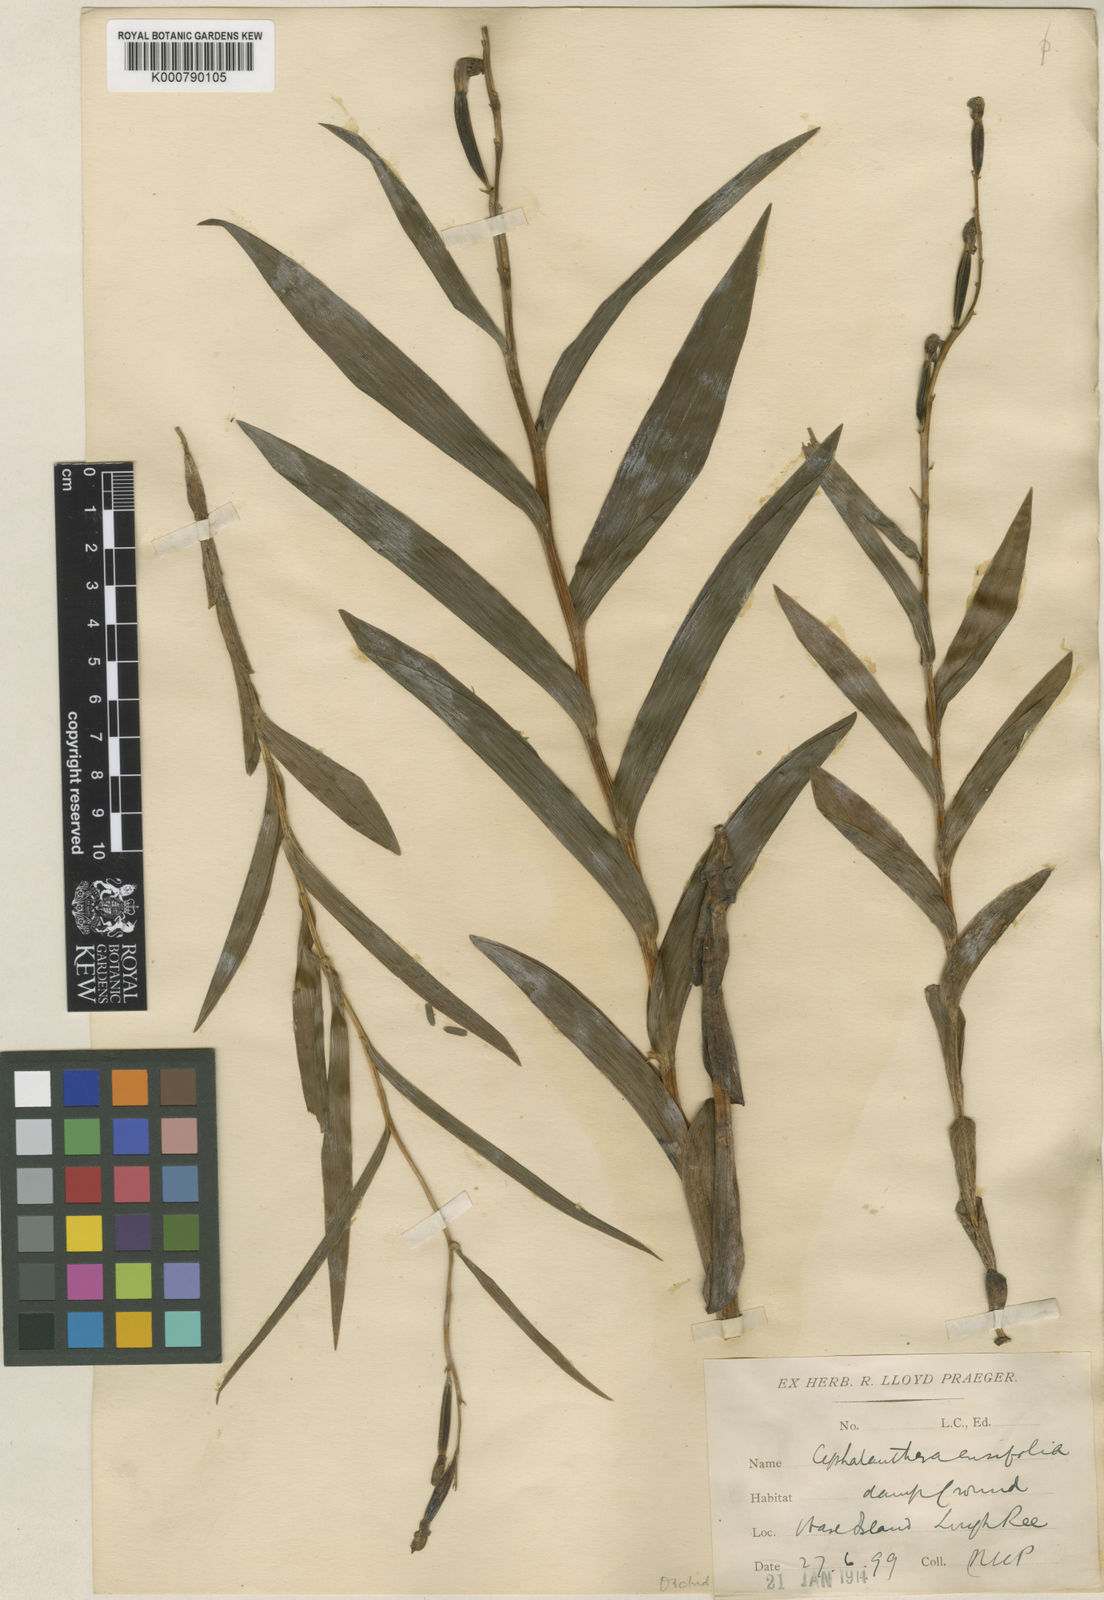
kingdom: Plantae
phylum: Tracheophyta
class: Liliopsida
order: Asparagales
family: Orchidaceae
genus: Cephalanthera
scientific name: Cephalanthera longifolia
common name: Narrow-leaved helleborine
